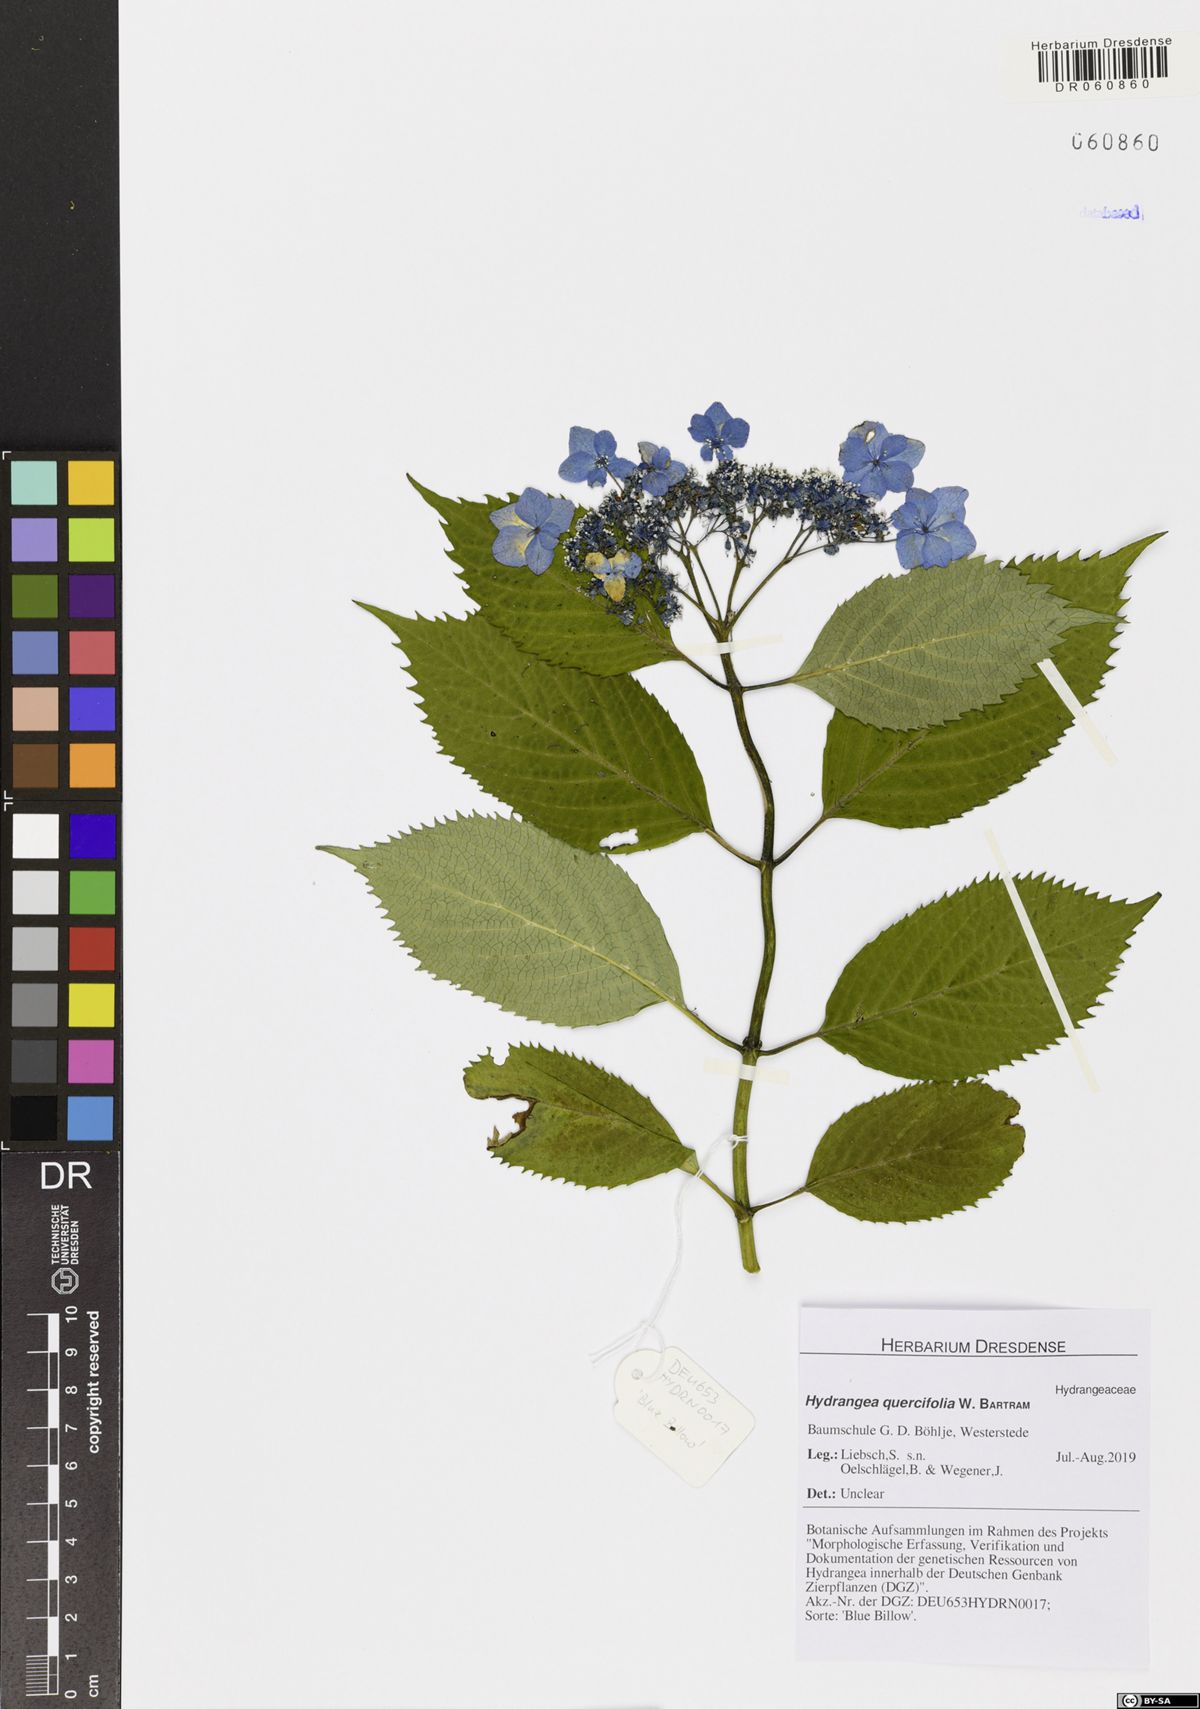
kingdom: Plantae
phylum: Tracheophyta
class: Magnoliopsida
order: Cornales
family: Hydrangeaceae
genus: Hydrangea
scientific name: Hydrangea quercifolia
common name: Oak-leaf hydrangea
